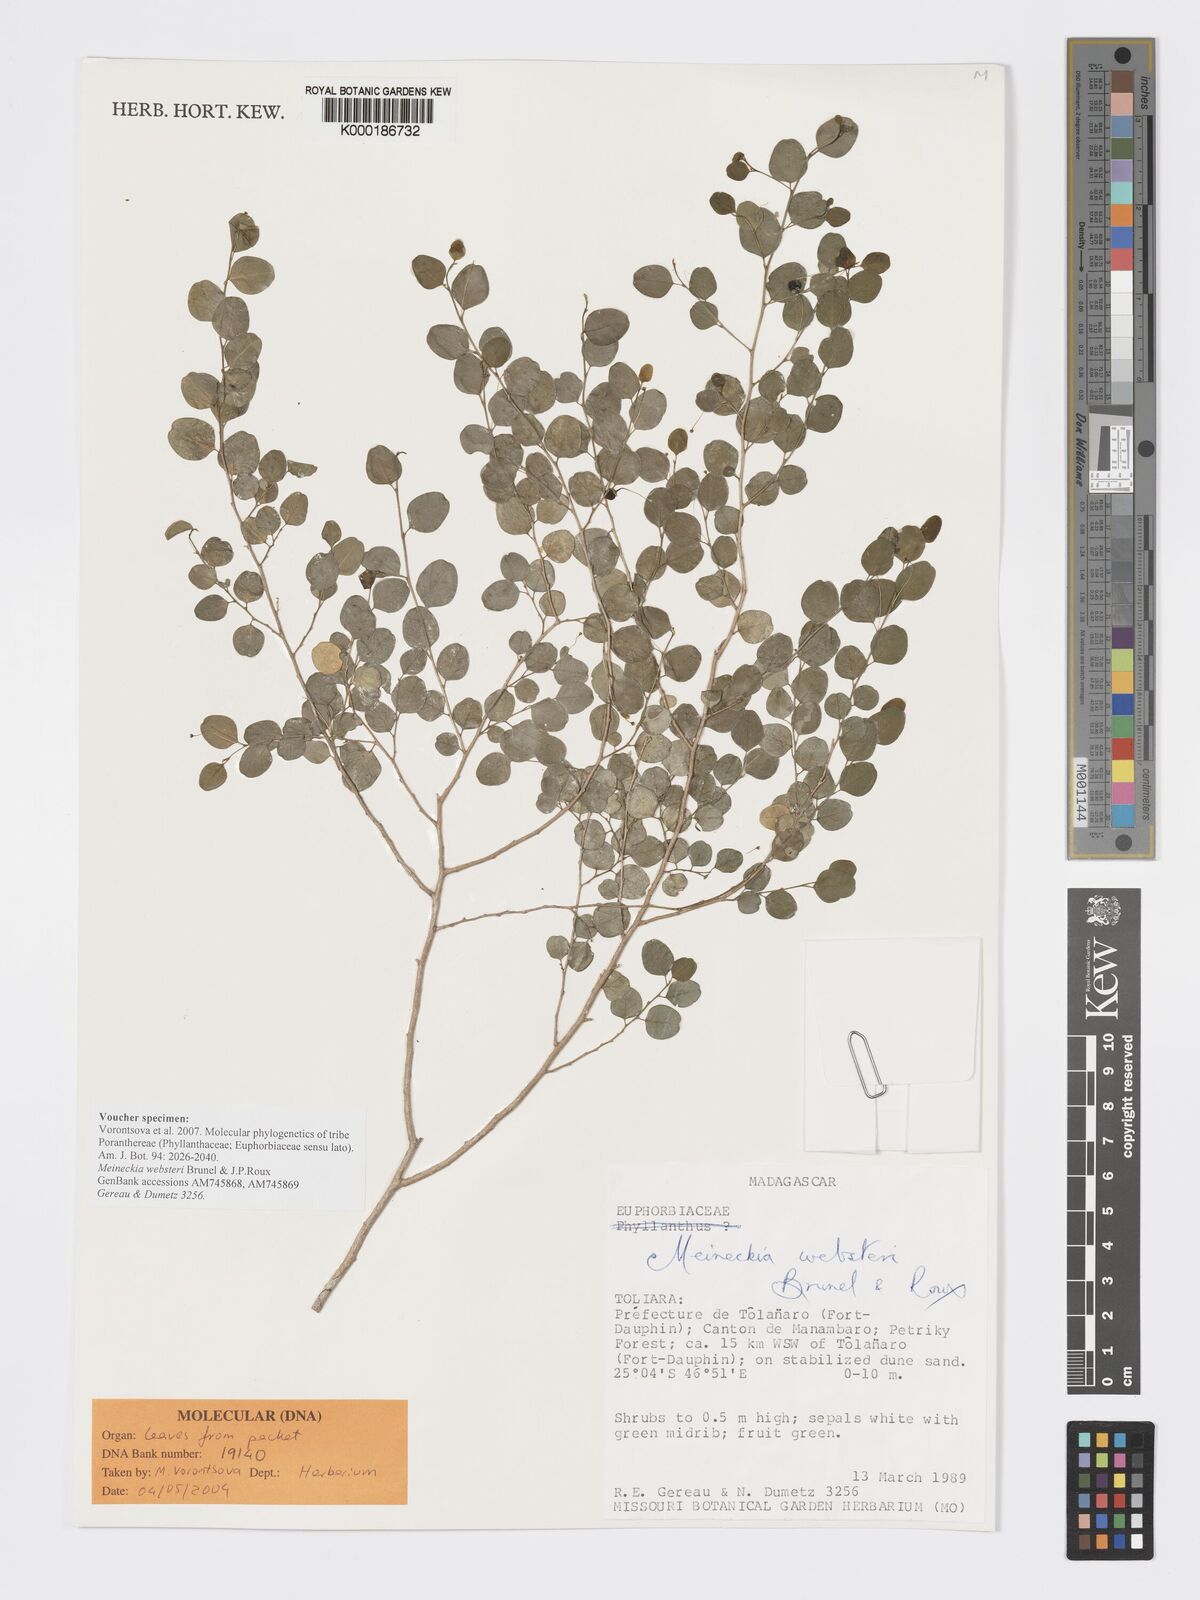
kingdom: Plantae
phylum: Tracheophyta
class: Magnoliopsida
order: Malpighiales
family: Phyllanthaceae
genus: Meineckia
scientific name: Meineckia websteri
